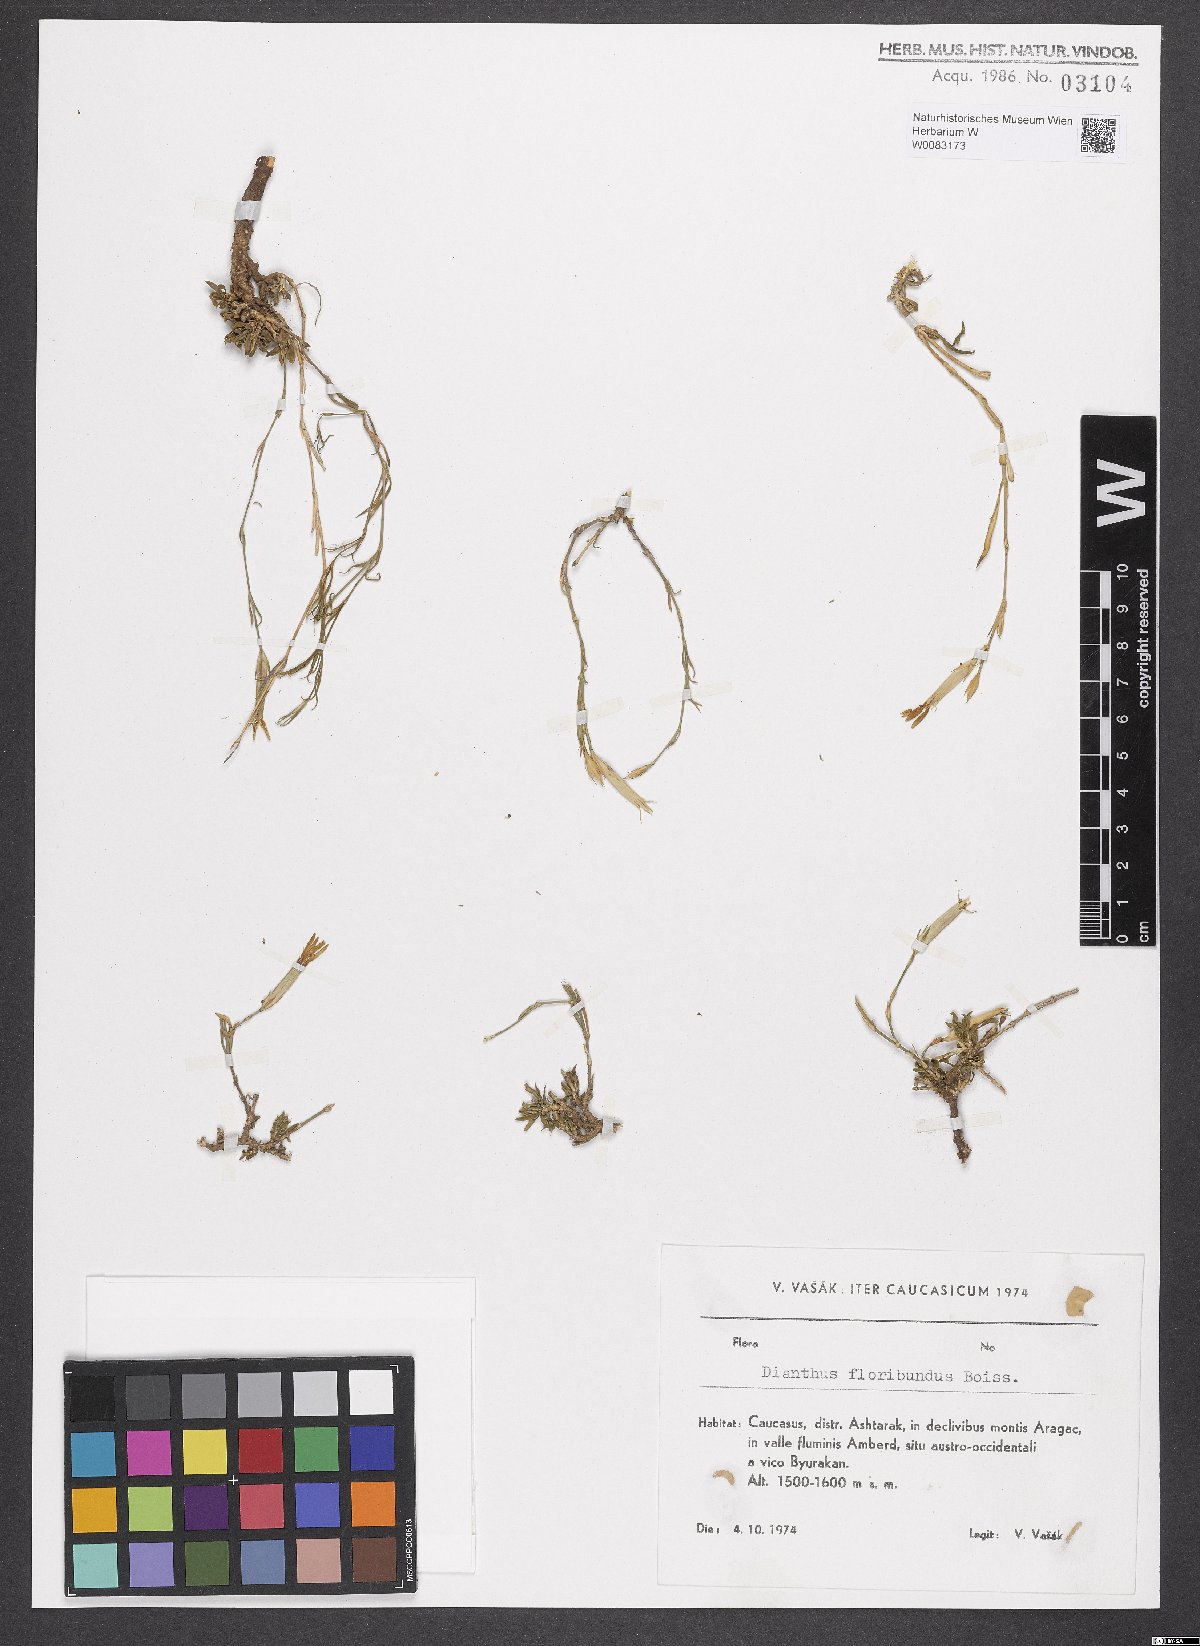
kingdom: Plantae
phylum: Tracheophyta
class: Magnoliopsida
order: Caryophyllales
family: Caryophyllaceae
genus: Dianthus
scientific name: Dianthus floribundus
